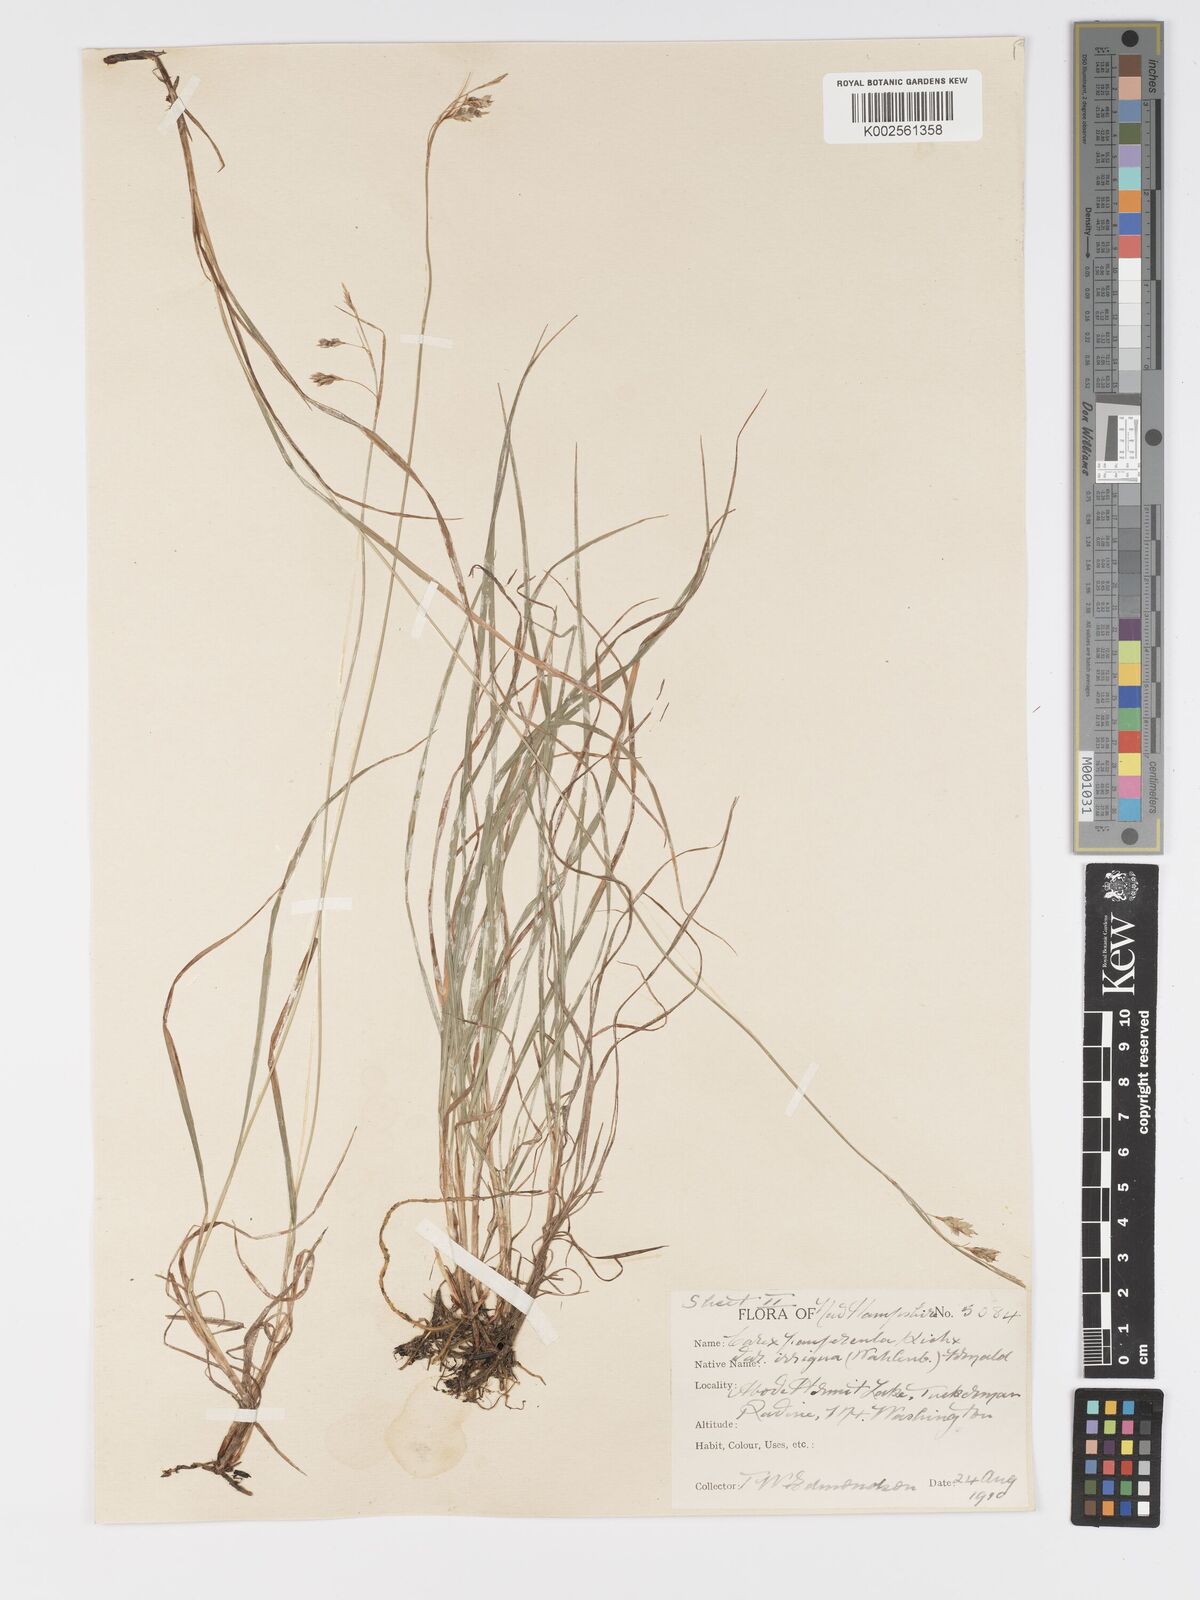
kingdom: Plantae
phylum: Tracheophyta
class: Liliopsida
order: Poales
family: Cyperaceae
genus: Carex
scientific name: Carex magellanica
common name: Bog sedge
